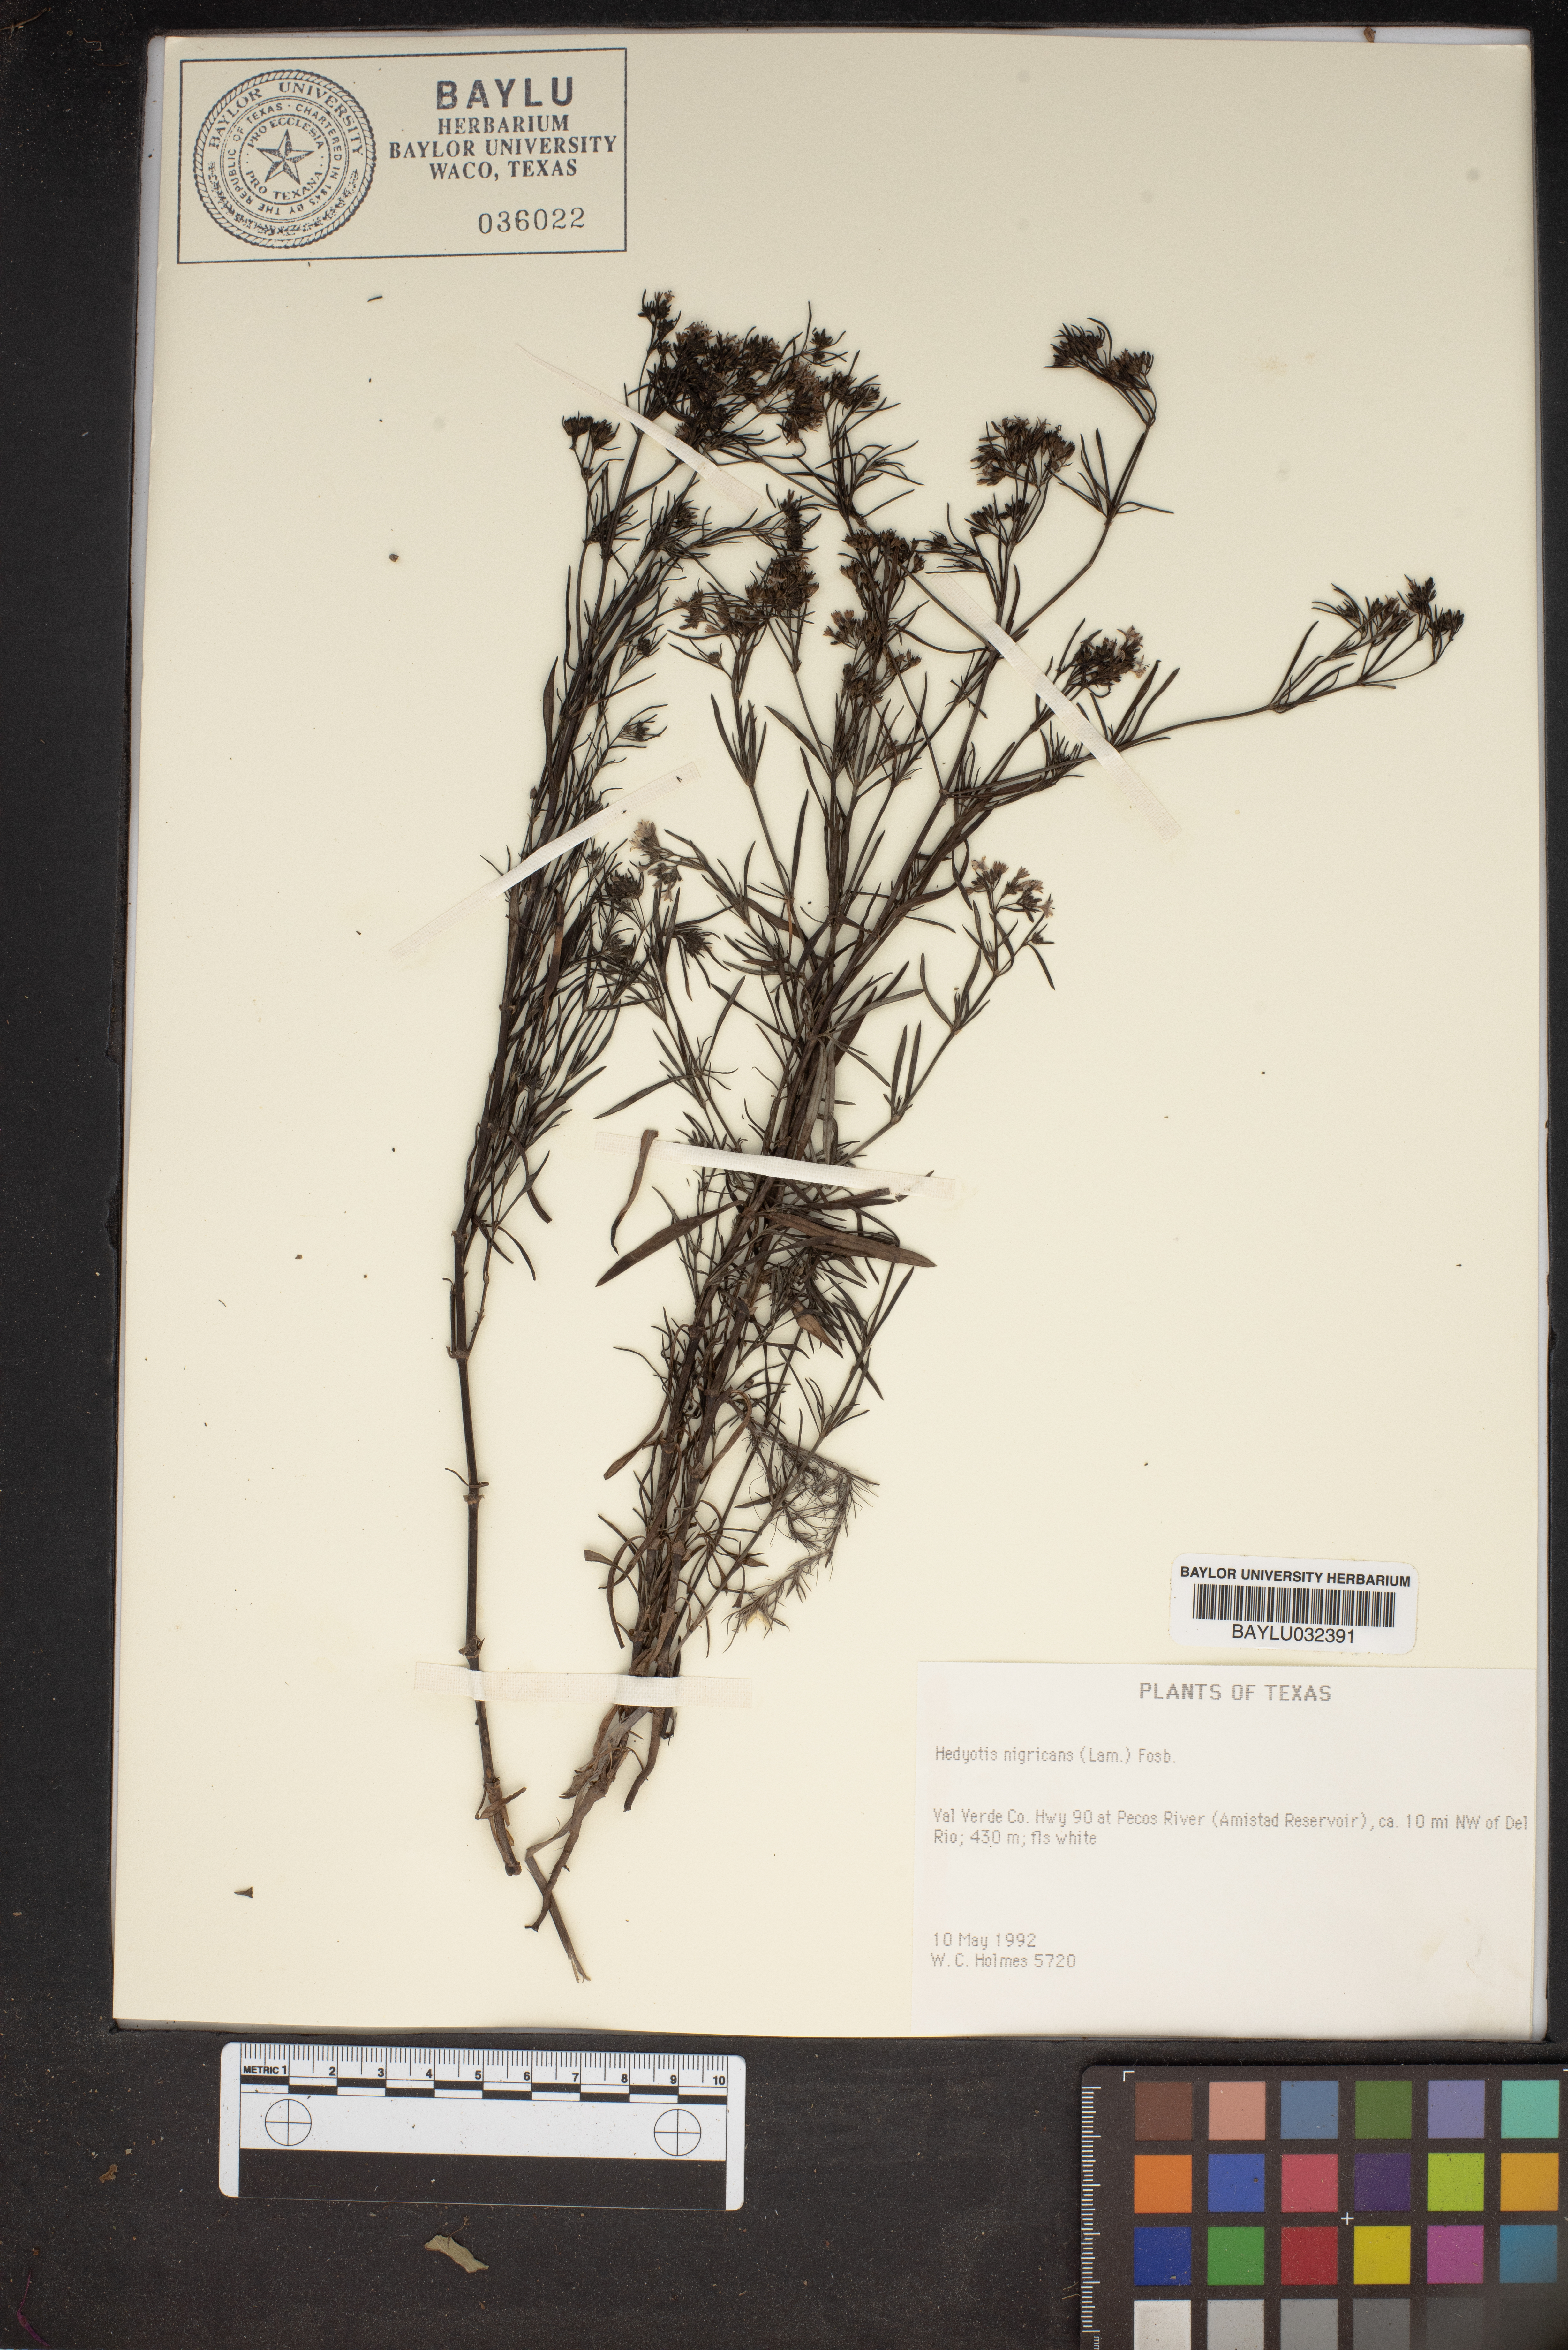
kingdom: Plantae
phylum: Tracheophyta
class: Magnoliopsida
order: Gentianales
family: Rubiaceae
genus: Stenaria
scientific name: Stenaria nigricans
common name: Diamondflowers
